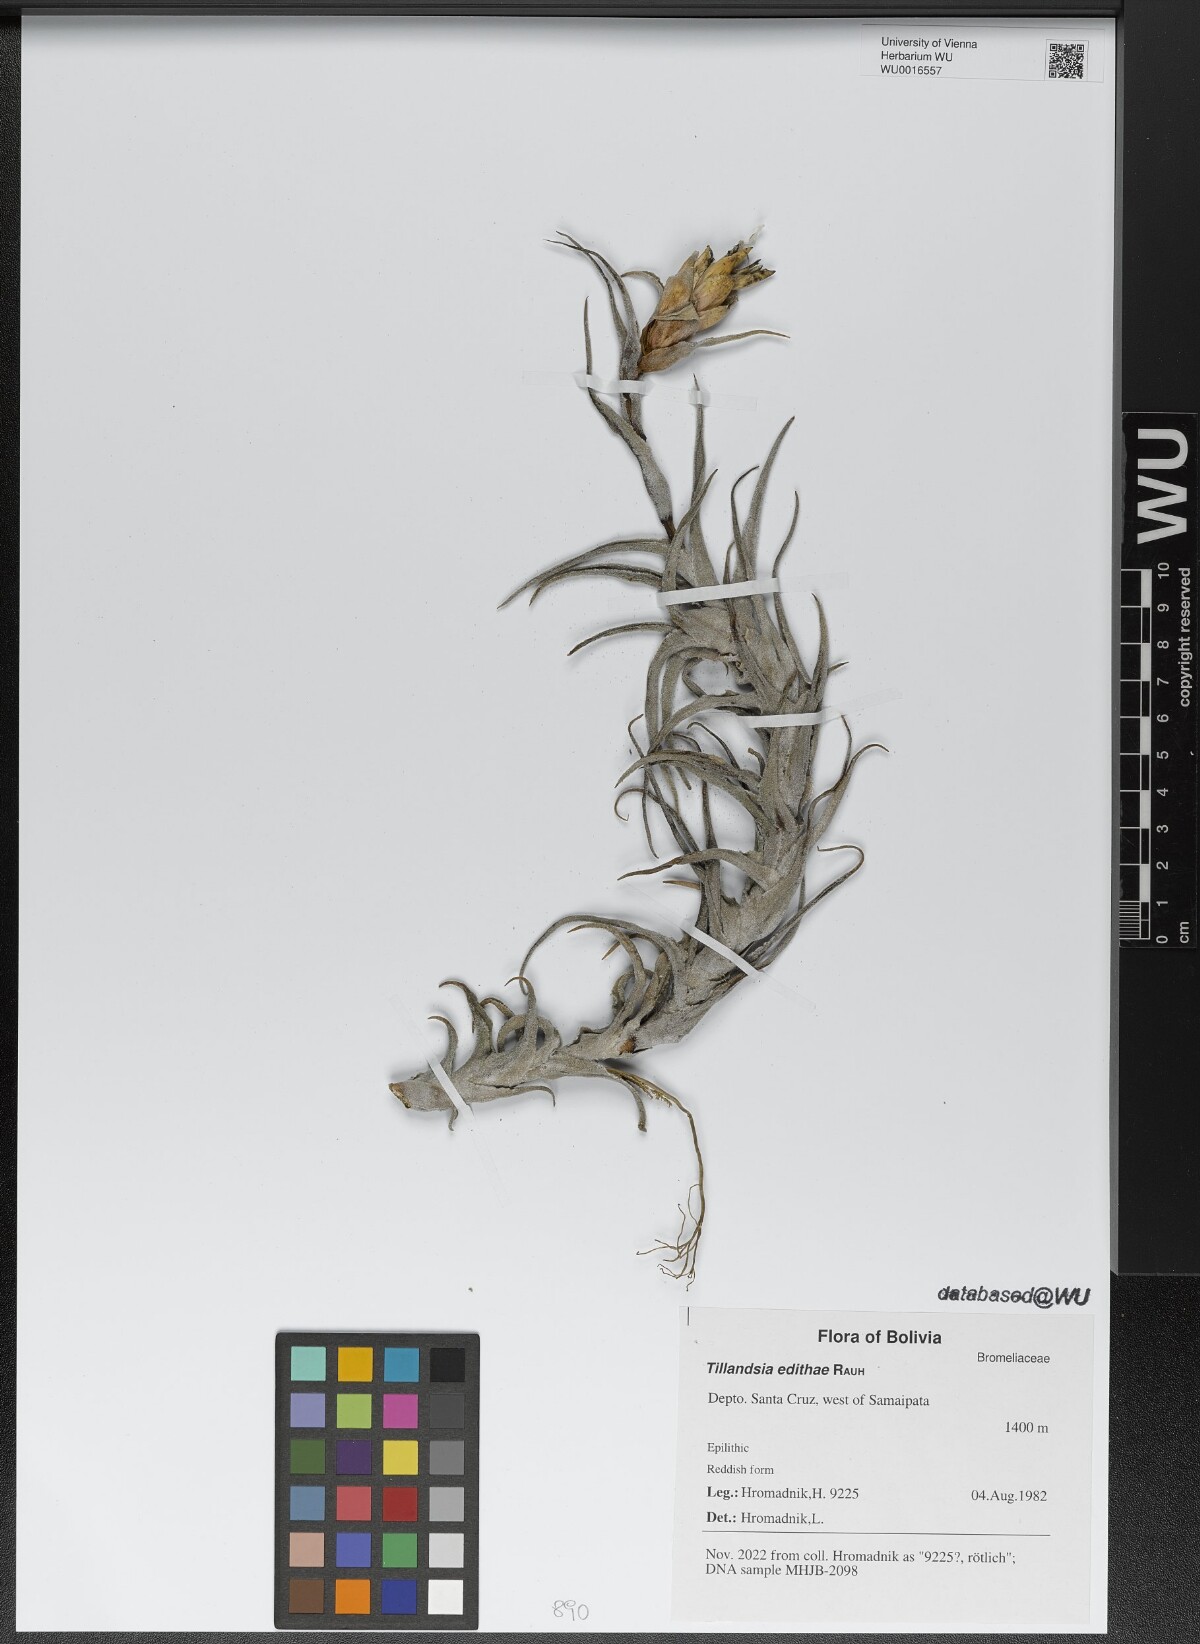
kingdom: Plantae
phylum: Tracheophyta
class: Liliopsida
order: Poales
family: Bromeliaceae
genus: Tillandsia
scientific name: Tillandsia edithae
